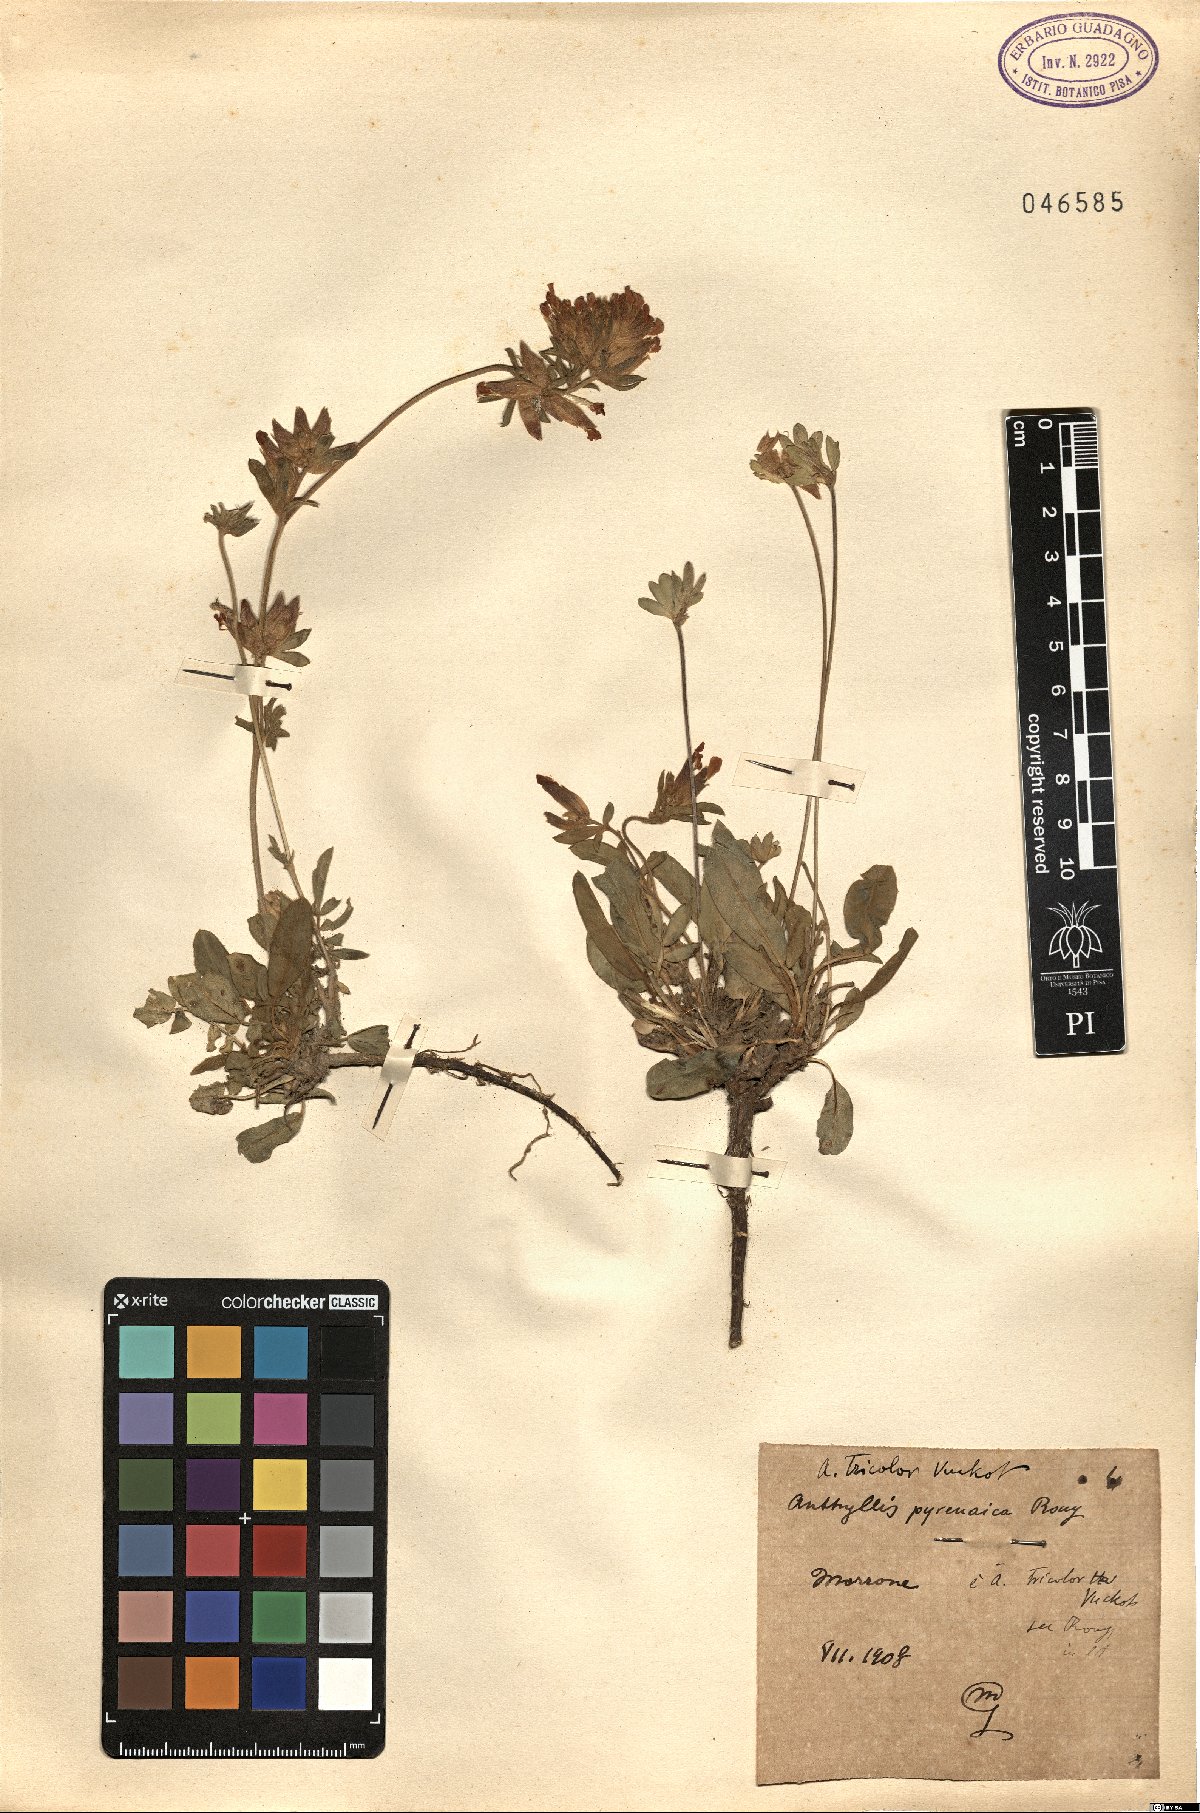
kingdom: Plantae
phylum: Tracheophyta
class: Magnoliopsida
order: Fabales
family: Fabaceae
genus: Anthyllis
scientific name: Anthyllis
